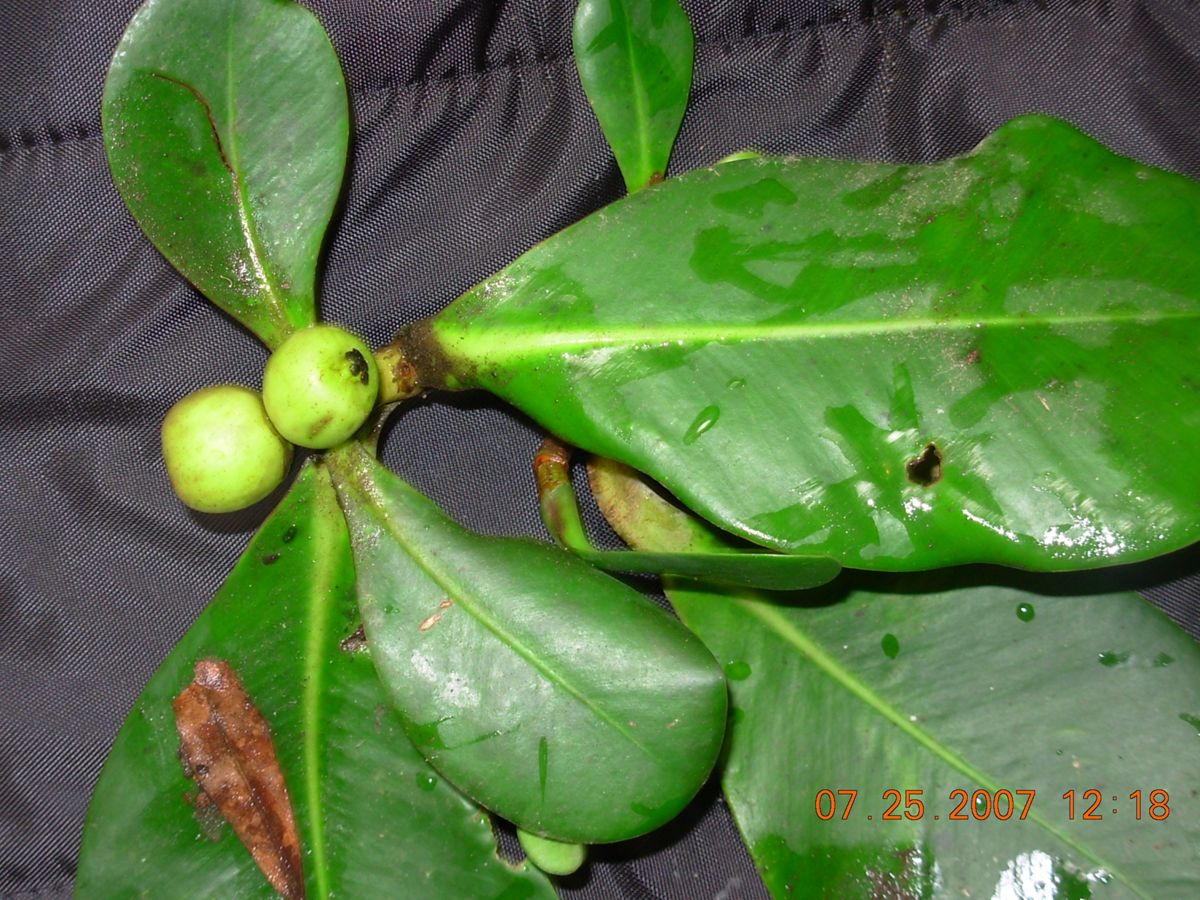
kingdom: Plantae
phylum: Tracheophyta
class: Magnoliopsida
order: Malpighiales
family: Clusiaceae
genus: Clusia
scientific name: Clusia salvinii
